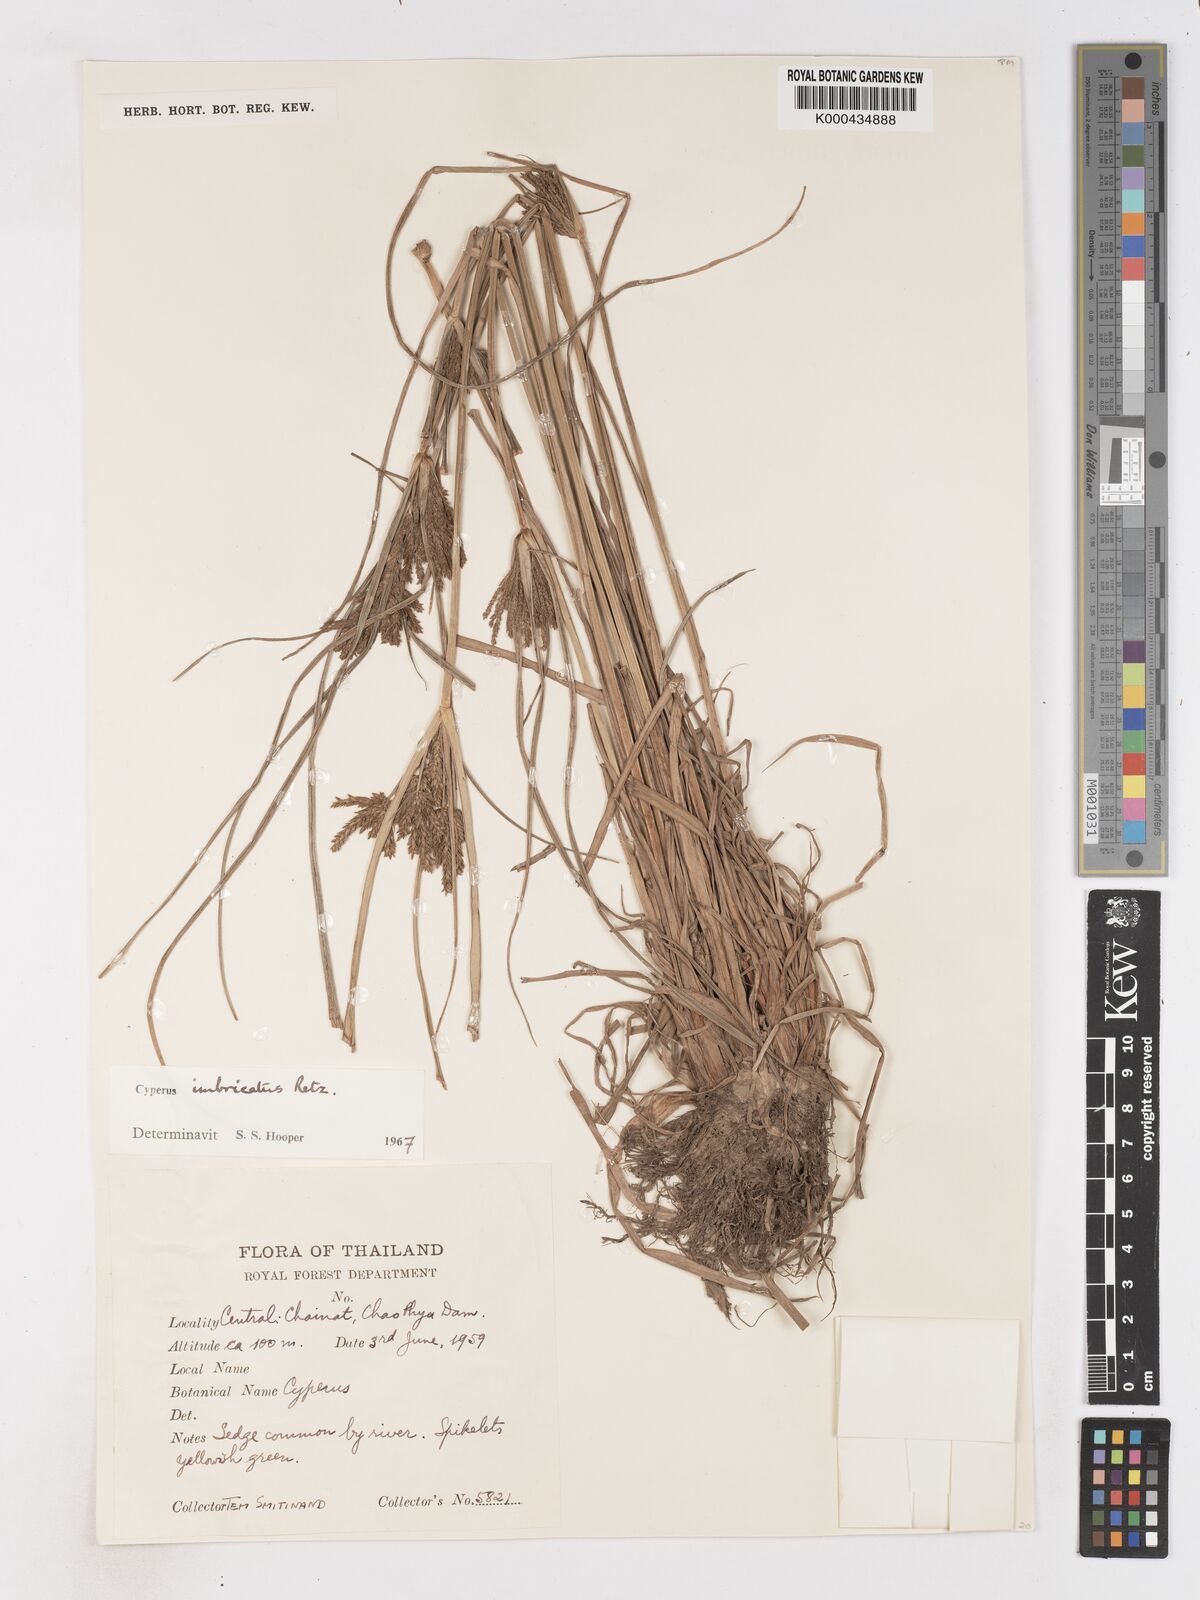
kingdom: Plantae
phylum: Tracheophyta
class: Liliopsida
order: Poales
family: Cyperaceae
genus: Cyperus
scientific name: Cyperus imbricatus
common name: Shingle flatsedge
